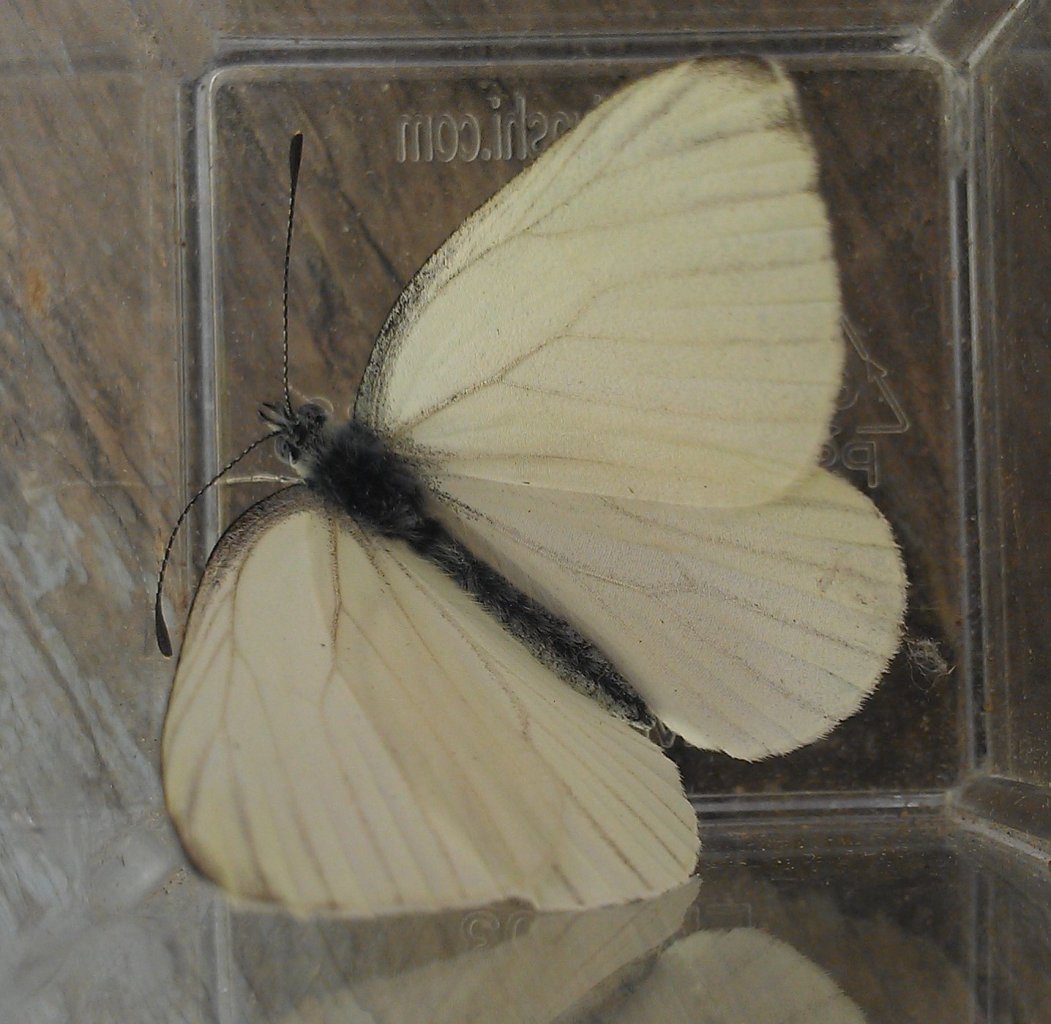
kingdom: Animalia
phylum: Arthropoda
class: Insecta
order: Lepidoptera
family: Pieridae
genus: Pieris
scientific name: Pieris oleracea
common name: Mustard White
